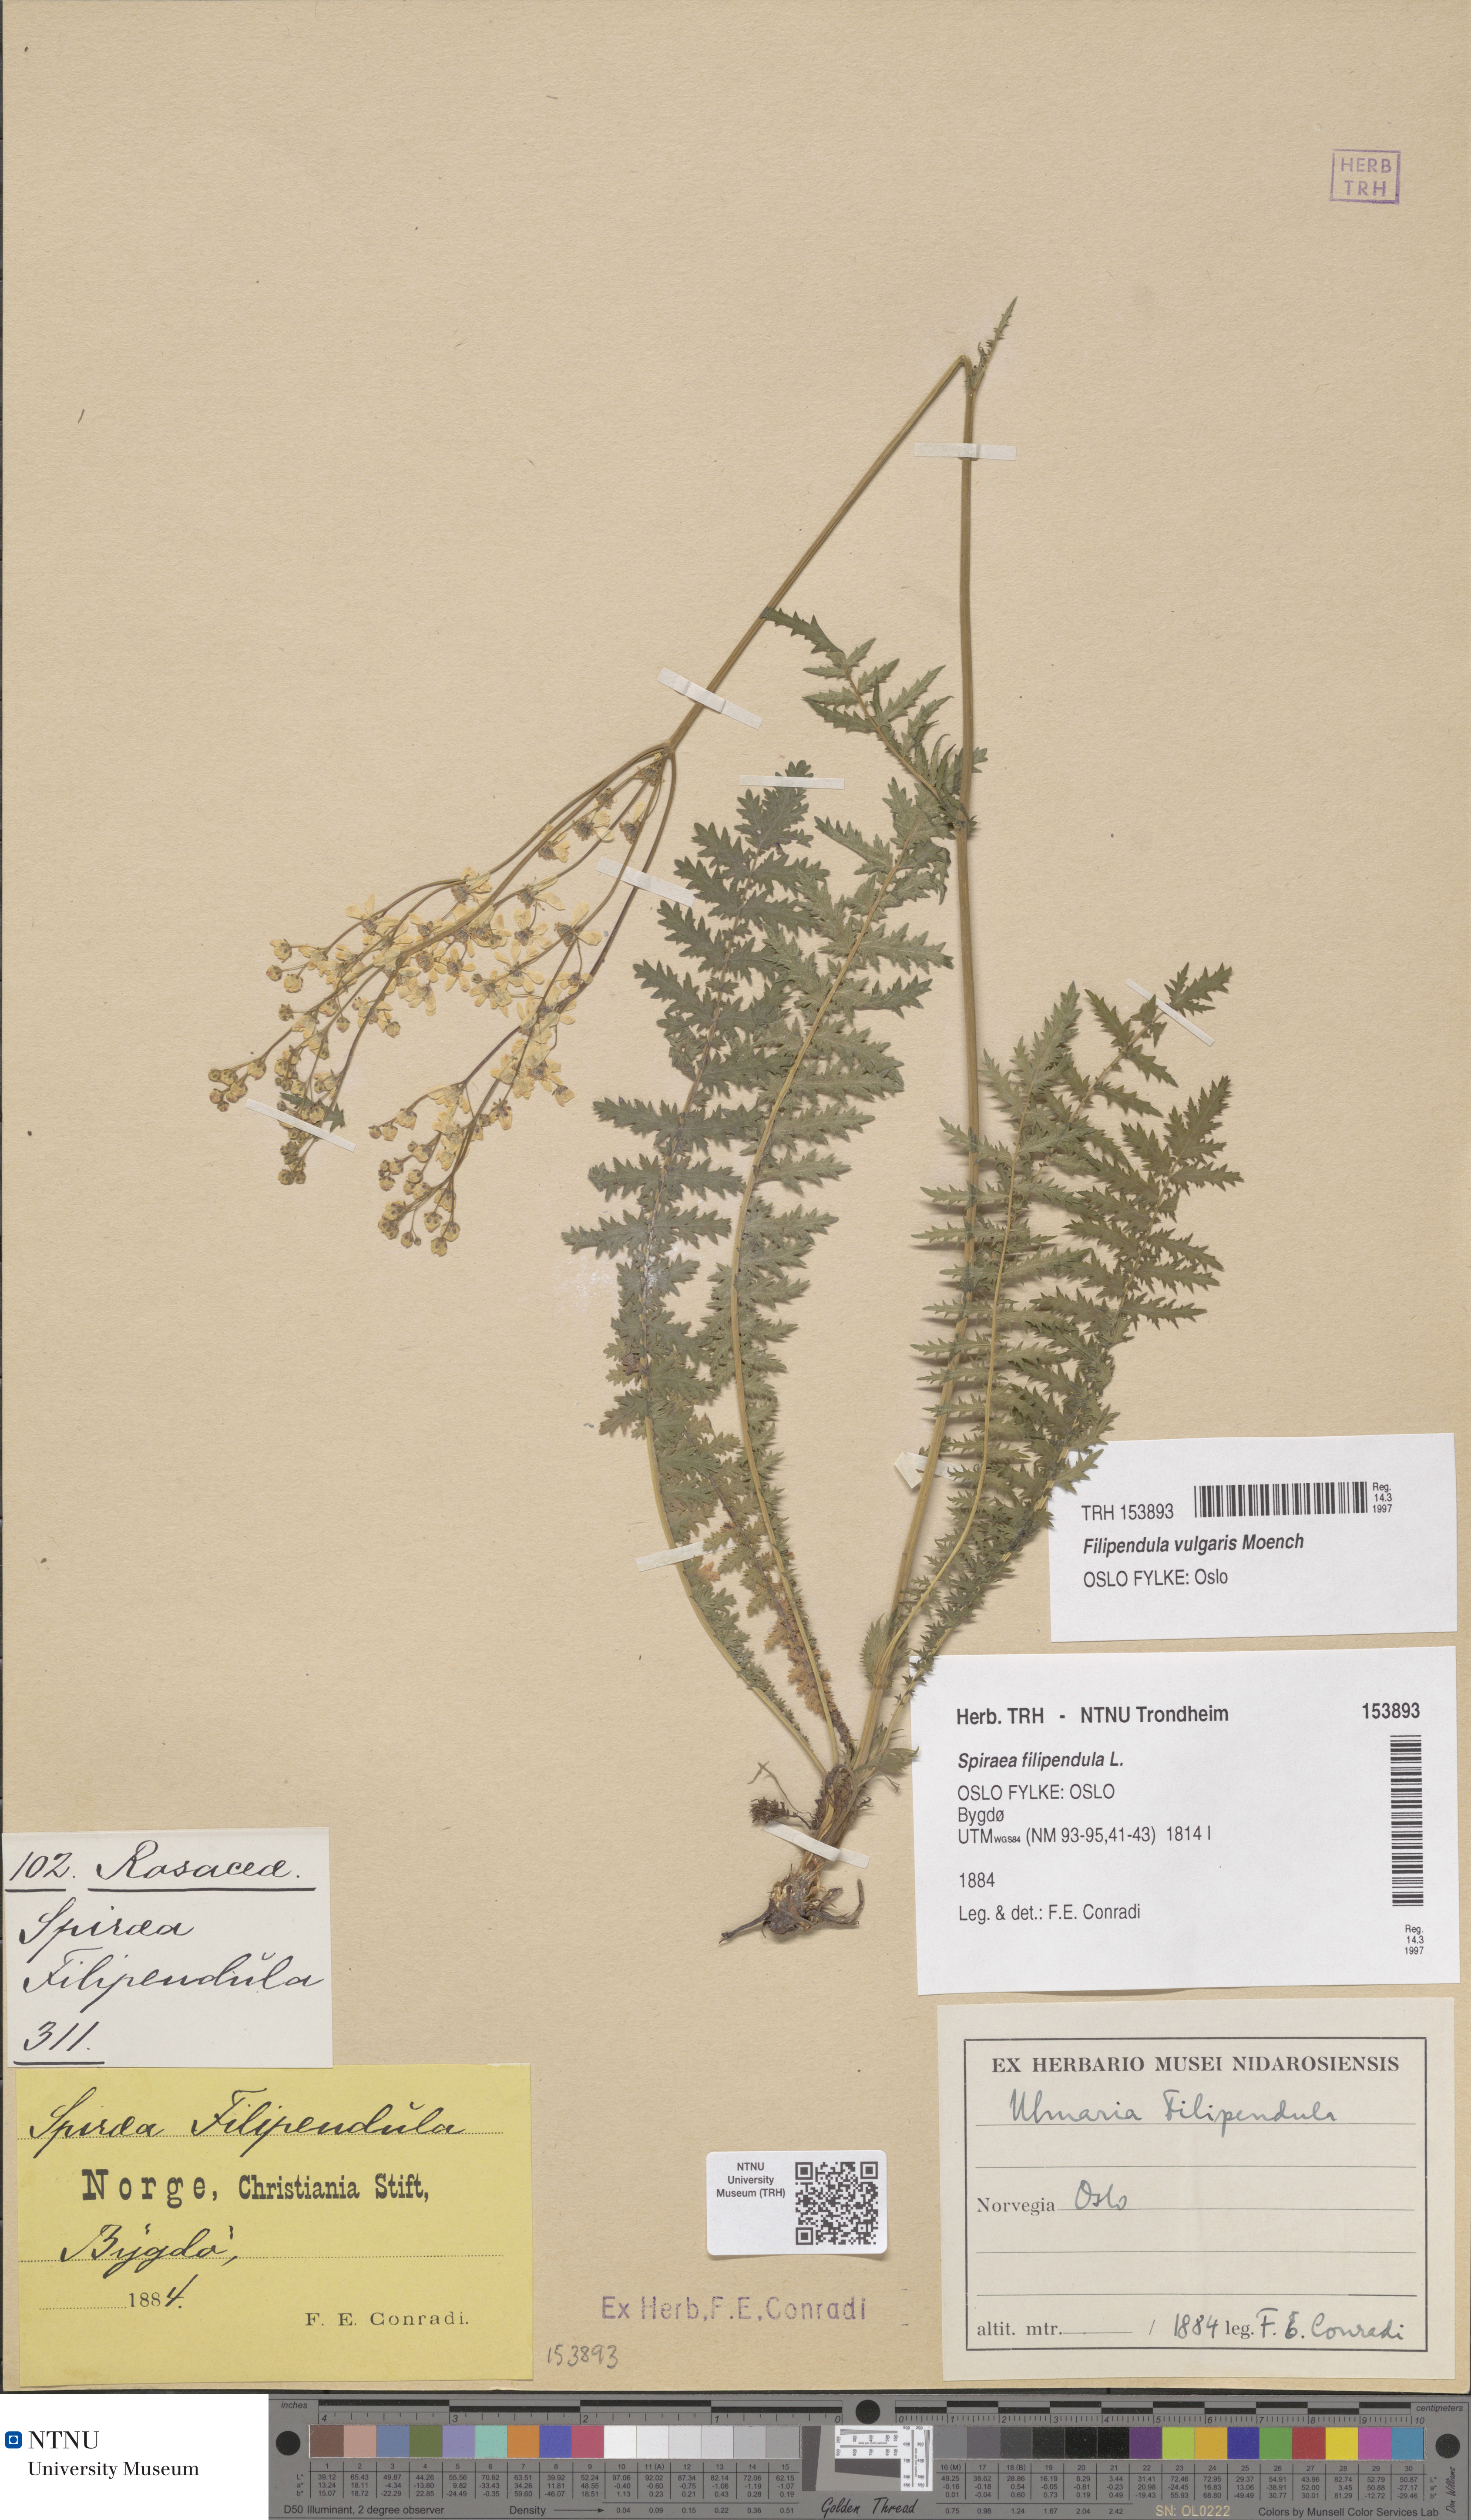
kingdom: Plantae
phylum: Tracheophyta
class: Magnoliopsida
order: Rosales
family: Rosaceae
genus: Filipendula
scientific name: Filipendula vulgaris
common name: Dropwort
